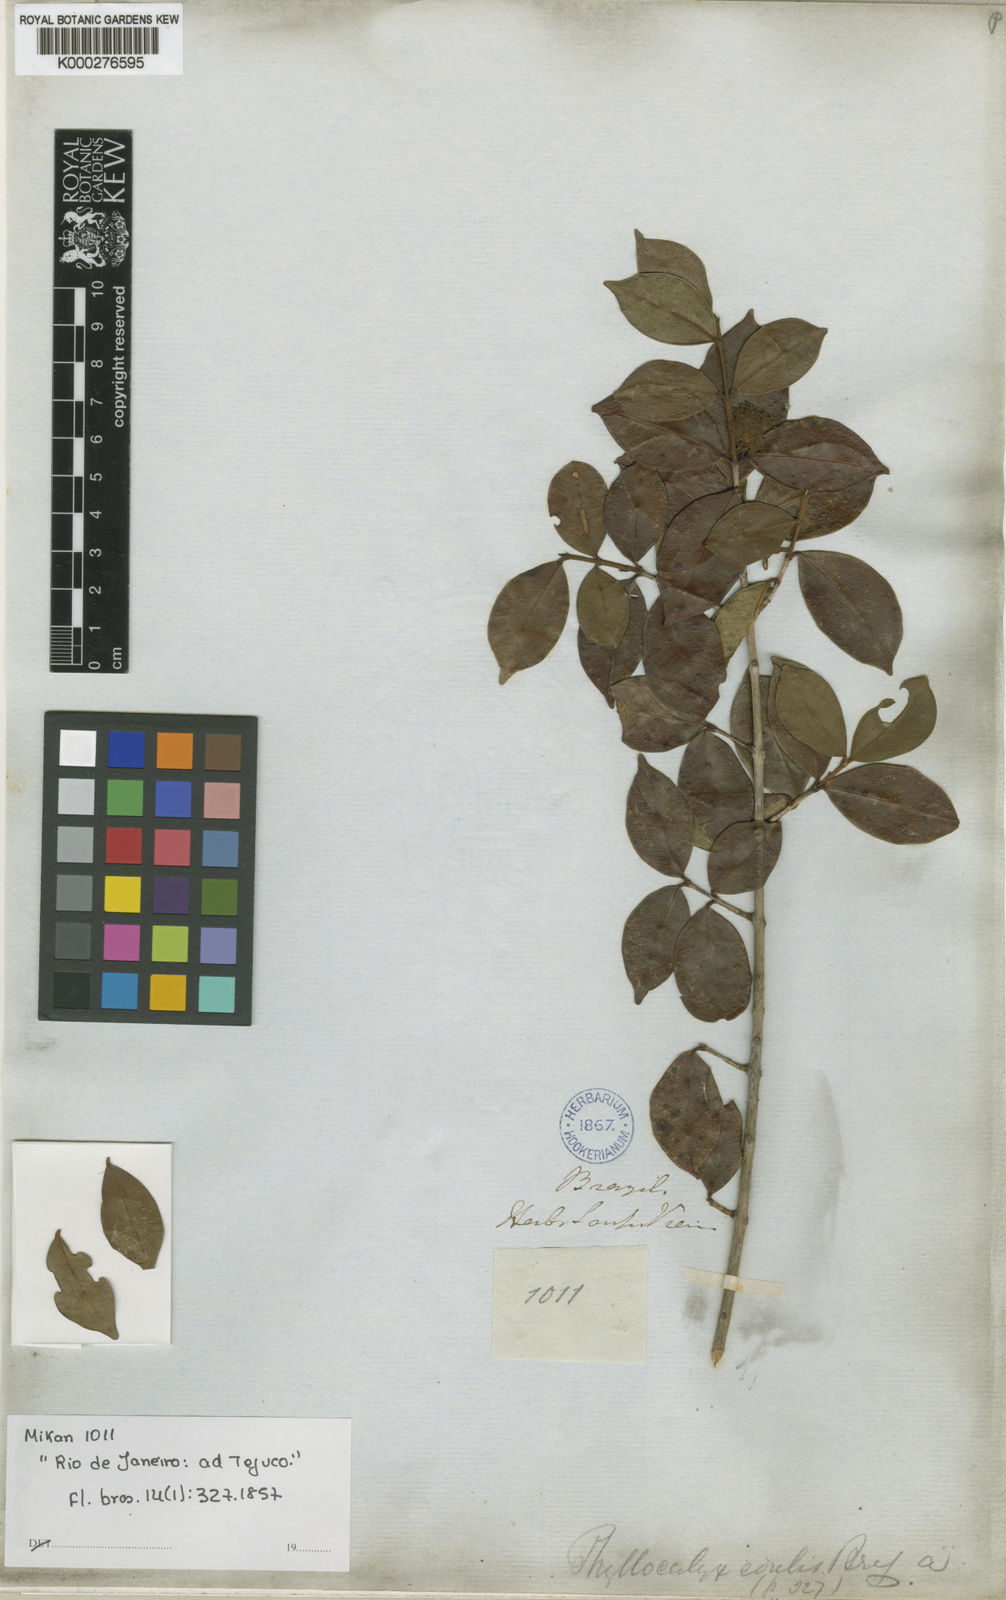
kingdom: Plantae
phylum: Tracheophyta
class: Magnoliopsida
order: Myrtales
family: Myrtaceae
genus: Eugenia
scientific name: Eugenia selloi
